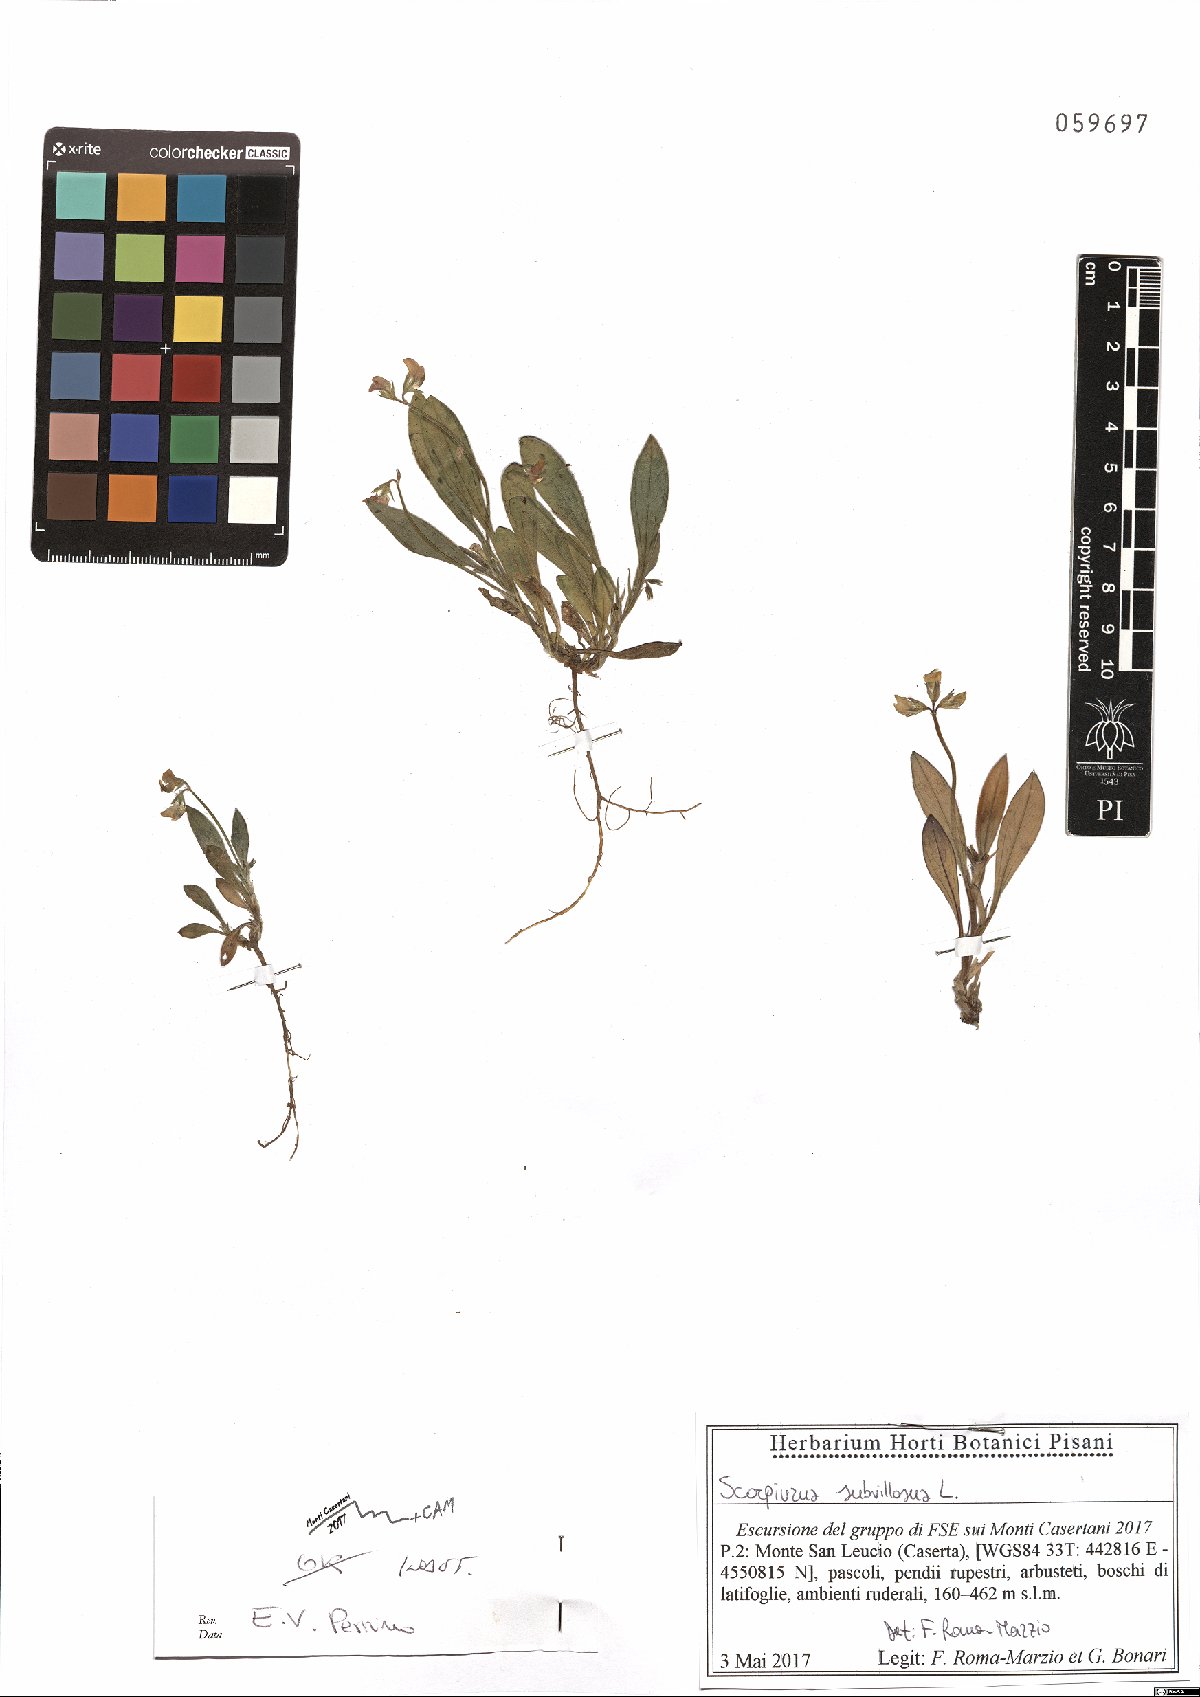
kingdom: Plantae
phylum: Tracheophyta
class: Magnoliopsida
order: Fabales
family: Fabaceae
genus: Scorpiurus
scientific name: Scorpiurus muricatus
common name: Caterpillar-plant
